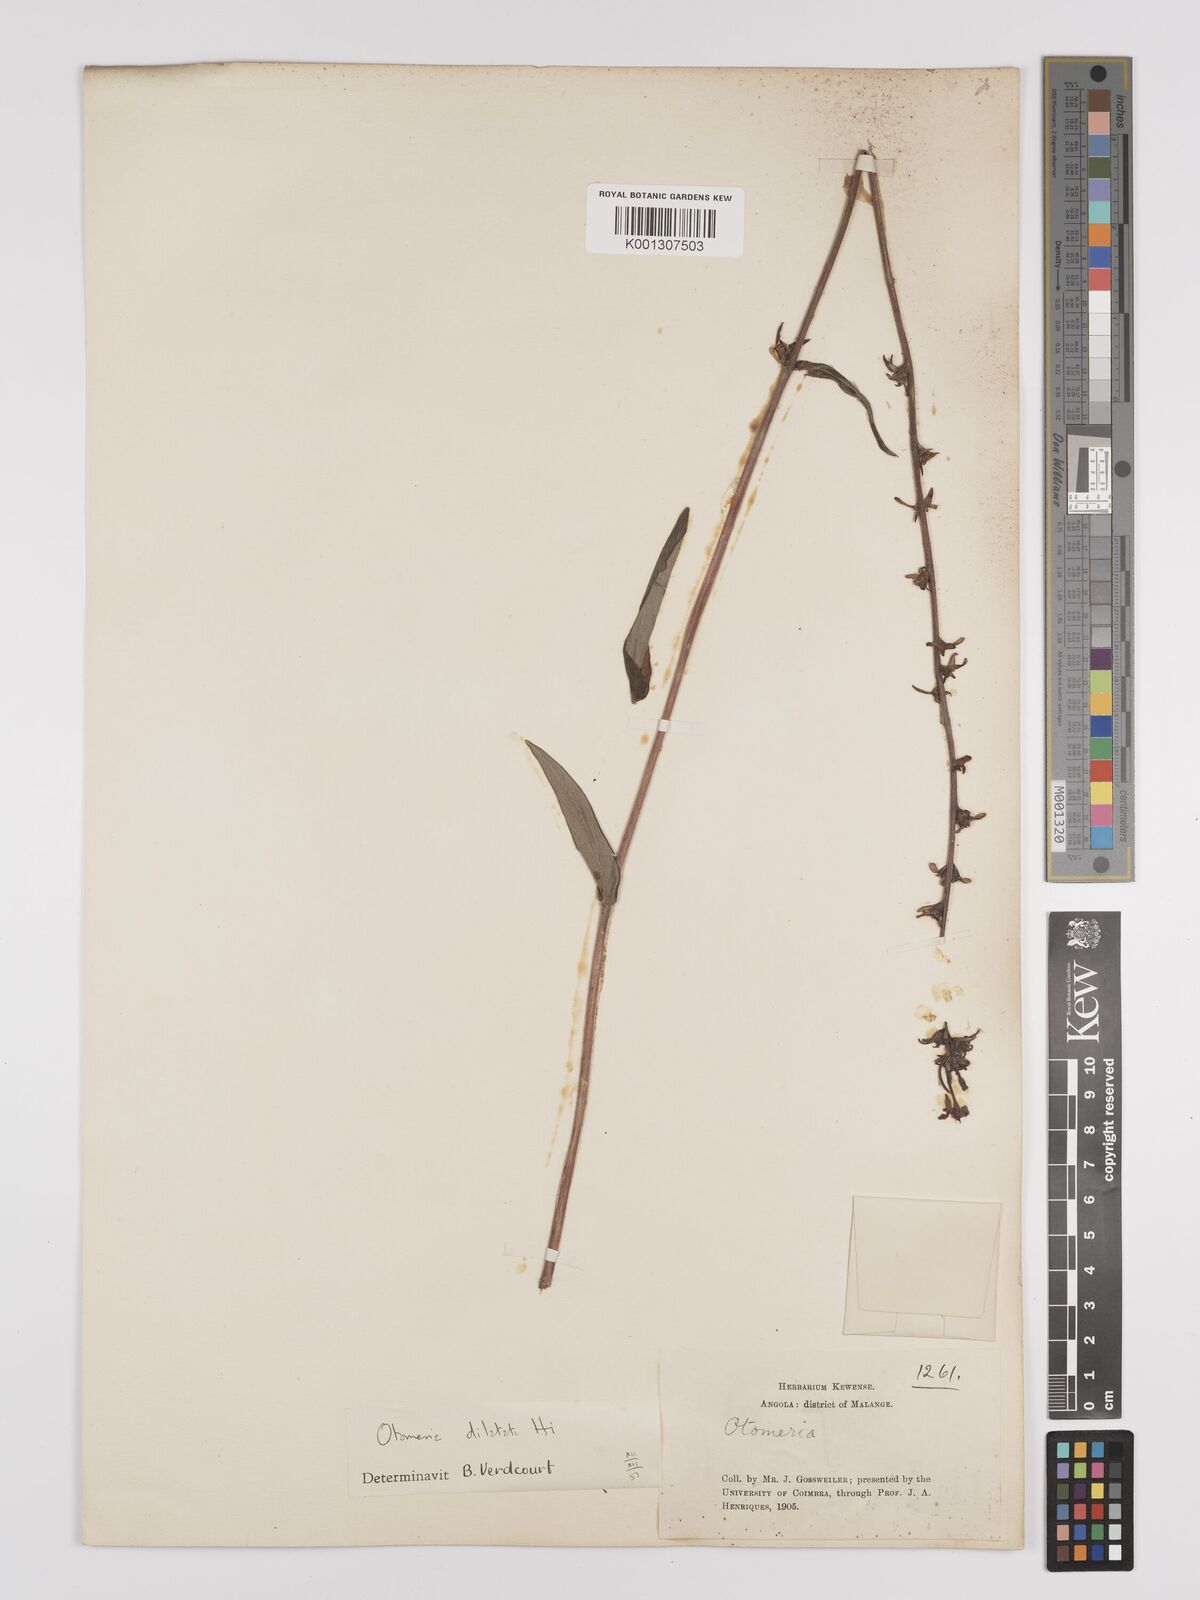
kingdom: Plantae
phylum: Tracheophyta
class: Magnoliopsida
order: Gentianales
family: Rubiaceae
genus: Otomeria
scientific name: Otomeria elatior
